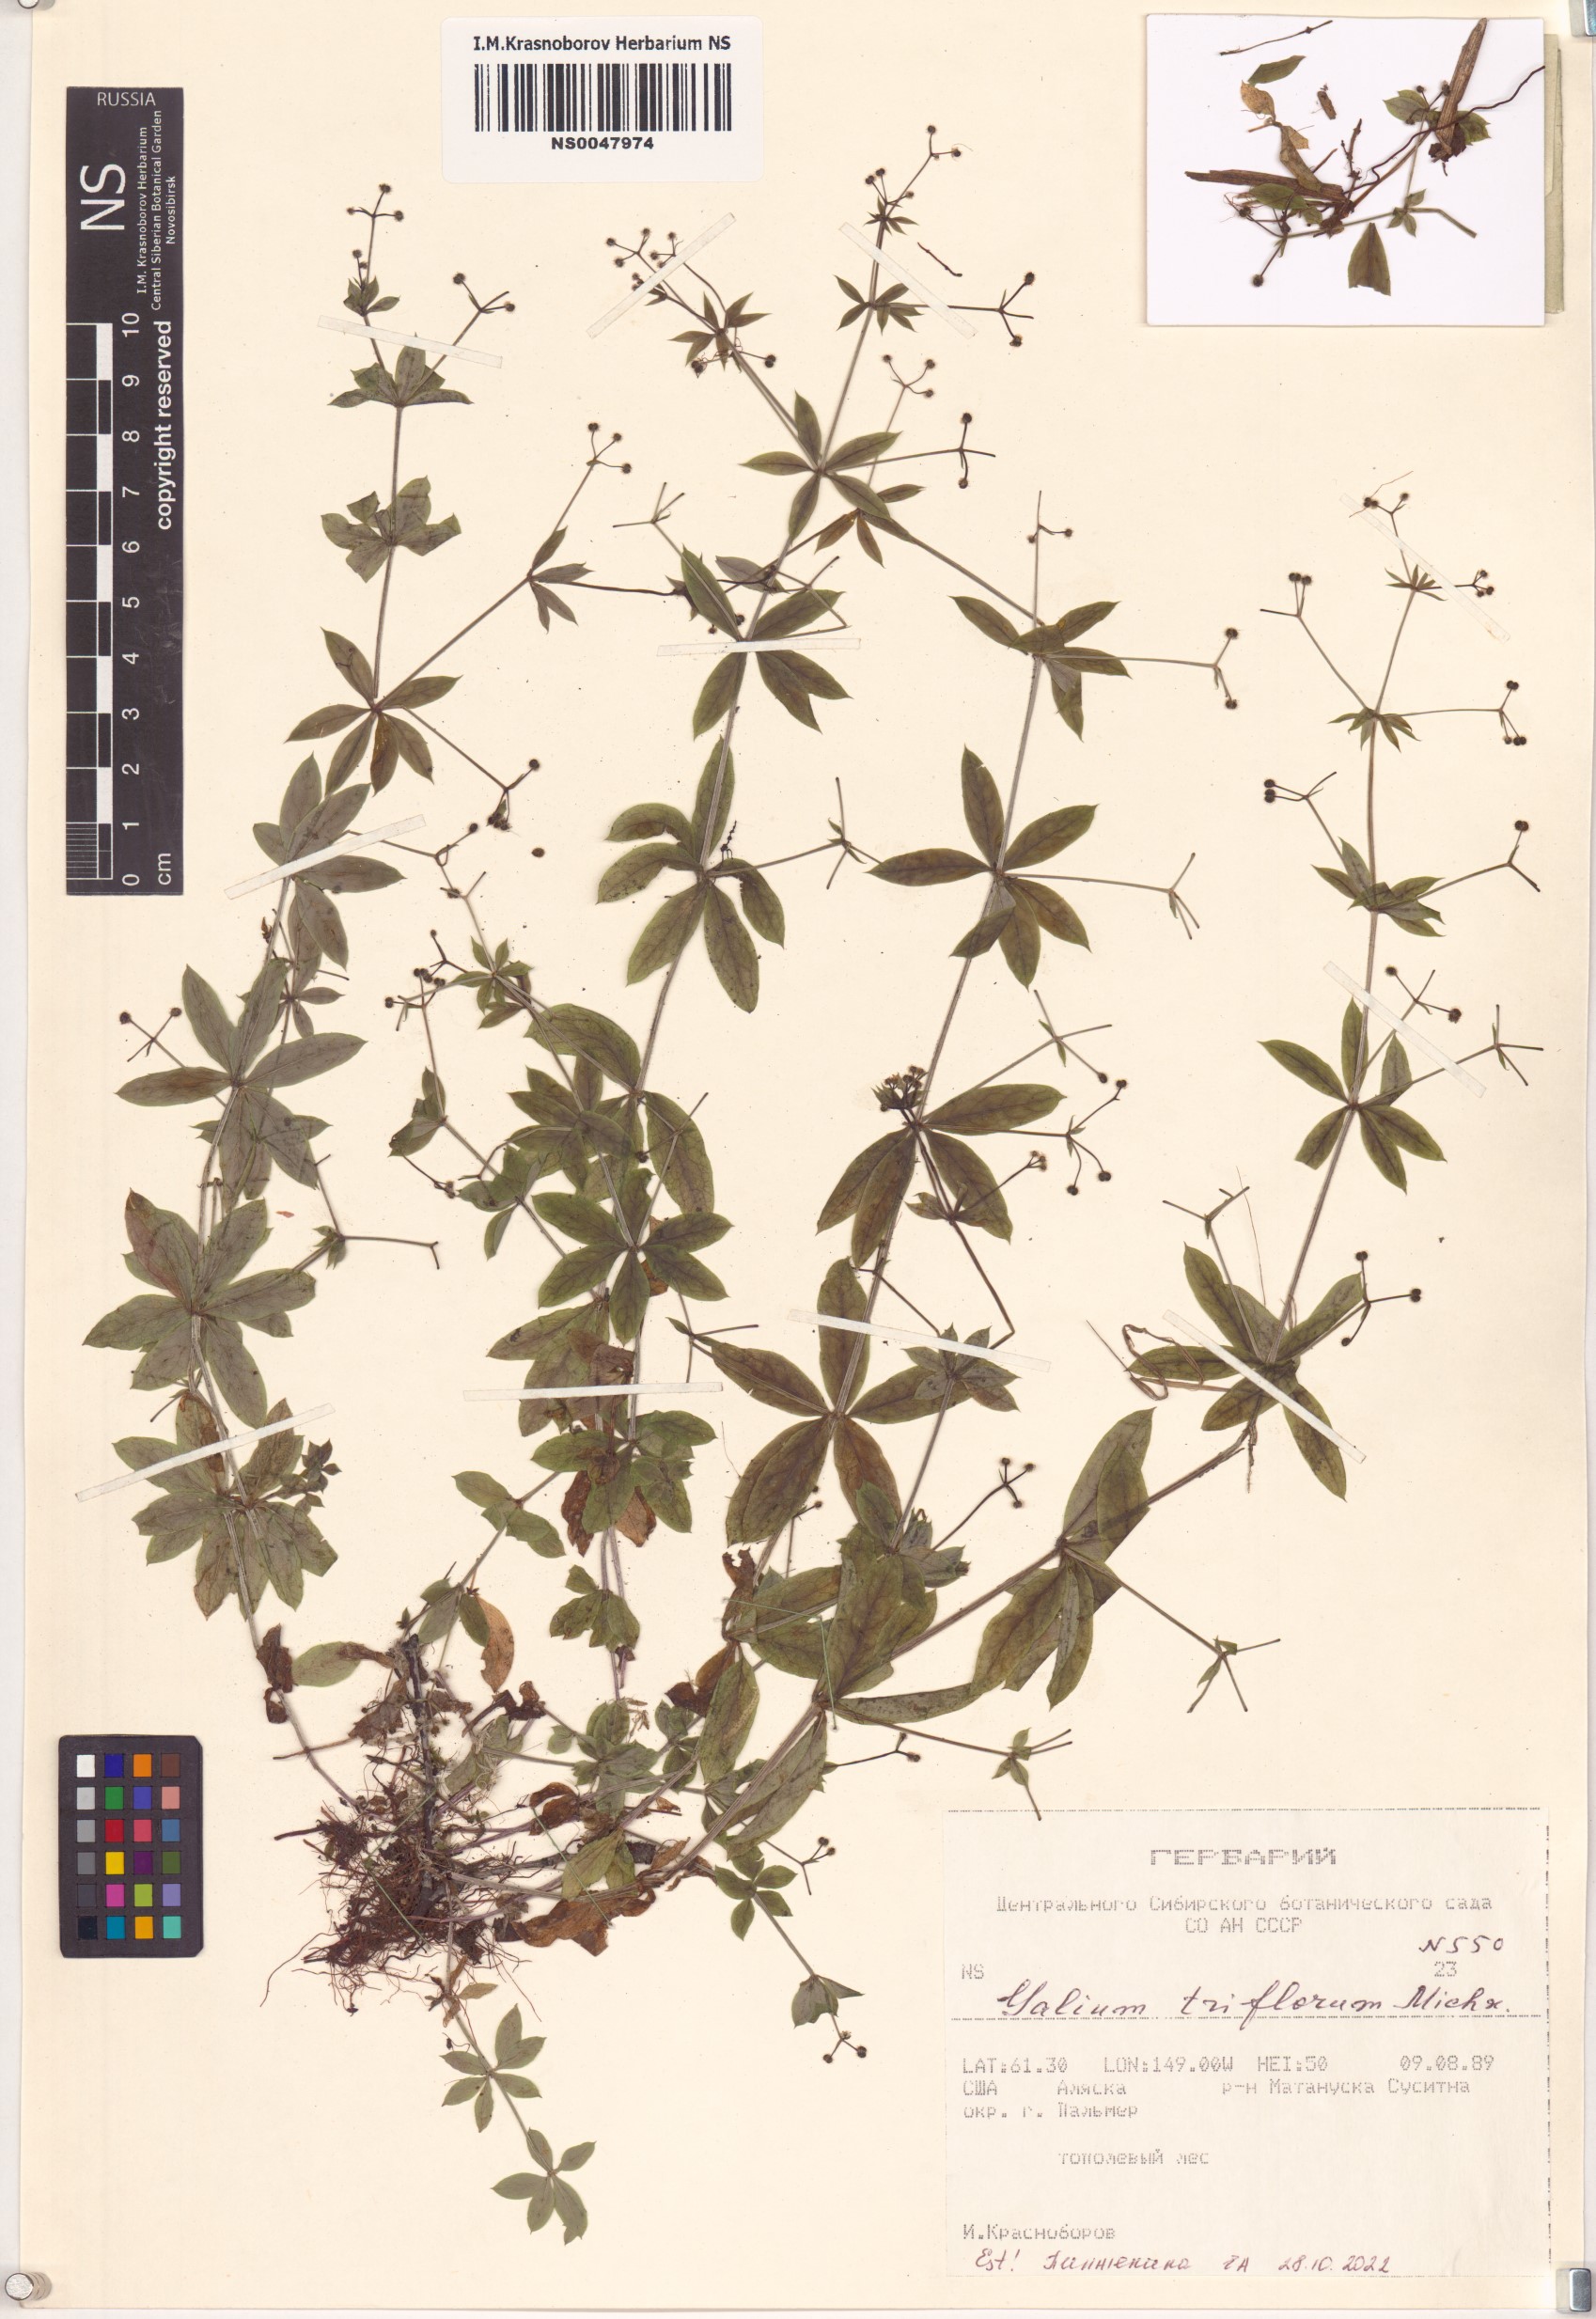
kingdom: Plantae
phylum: Tracheophyta
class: Magnoliopsida
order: Gentianales
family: Rubiaceae
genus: Galium
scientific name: Galium triflorum
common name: Fragrant bedstraw
